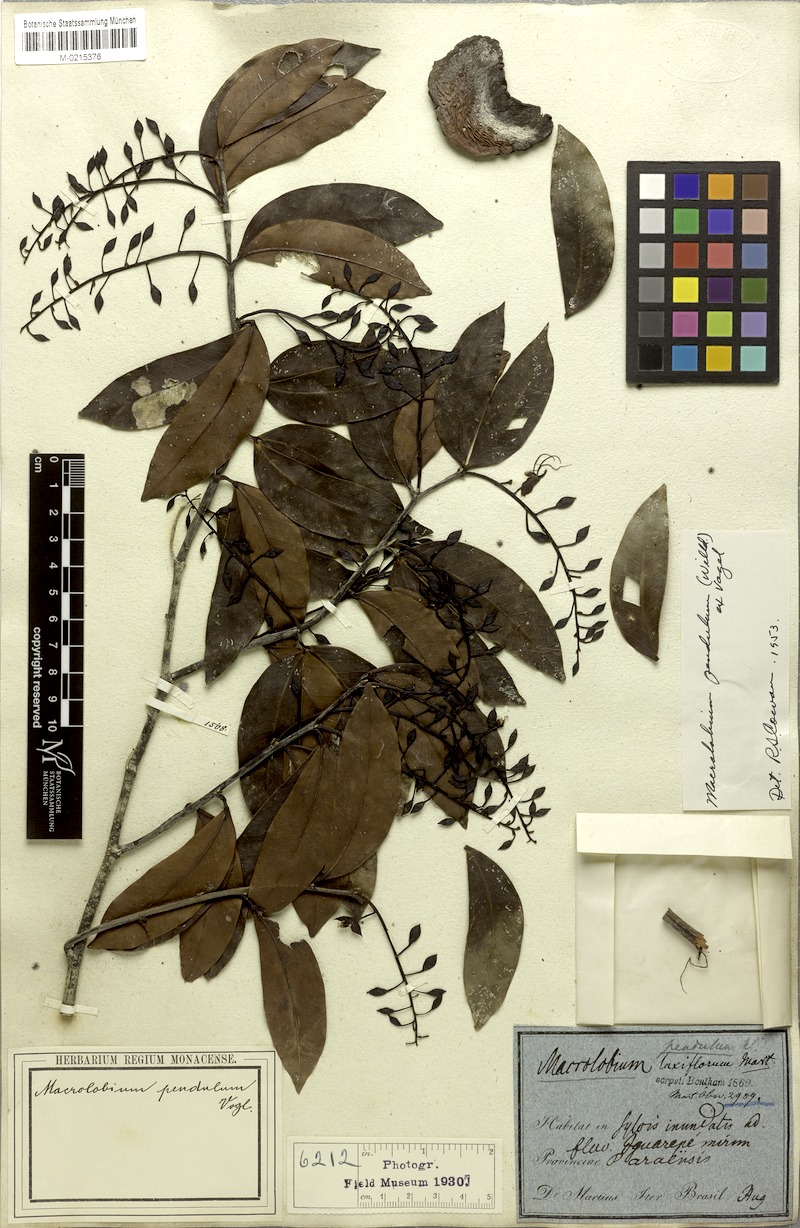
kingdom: Plantae
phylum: Tracheophyta
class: Magnoliopsida
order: Fabales
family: Fabaceae
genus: Macrolobium
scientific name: Macrolobium pendulum
